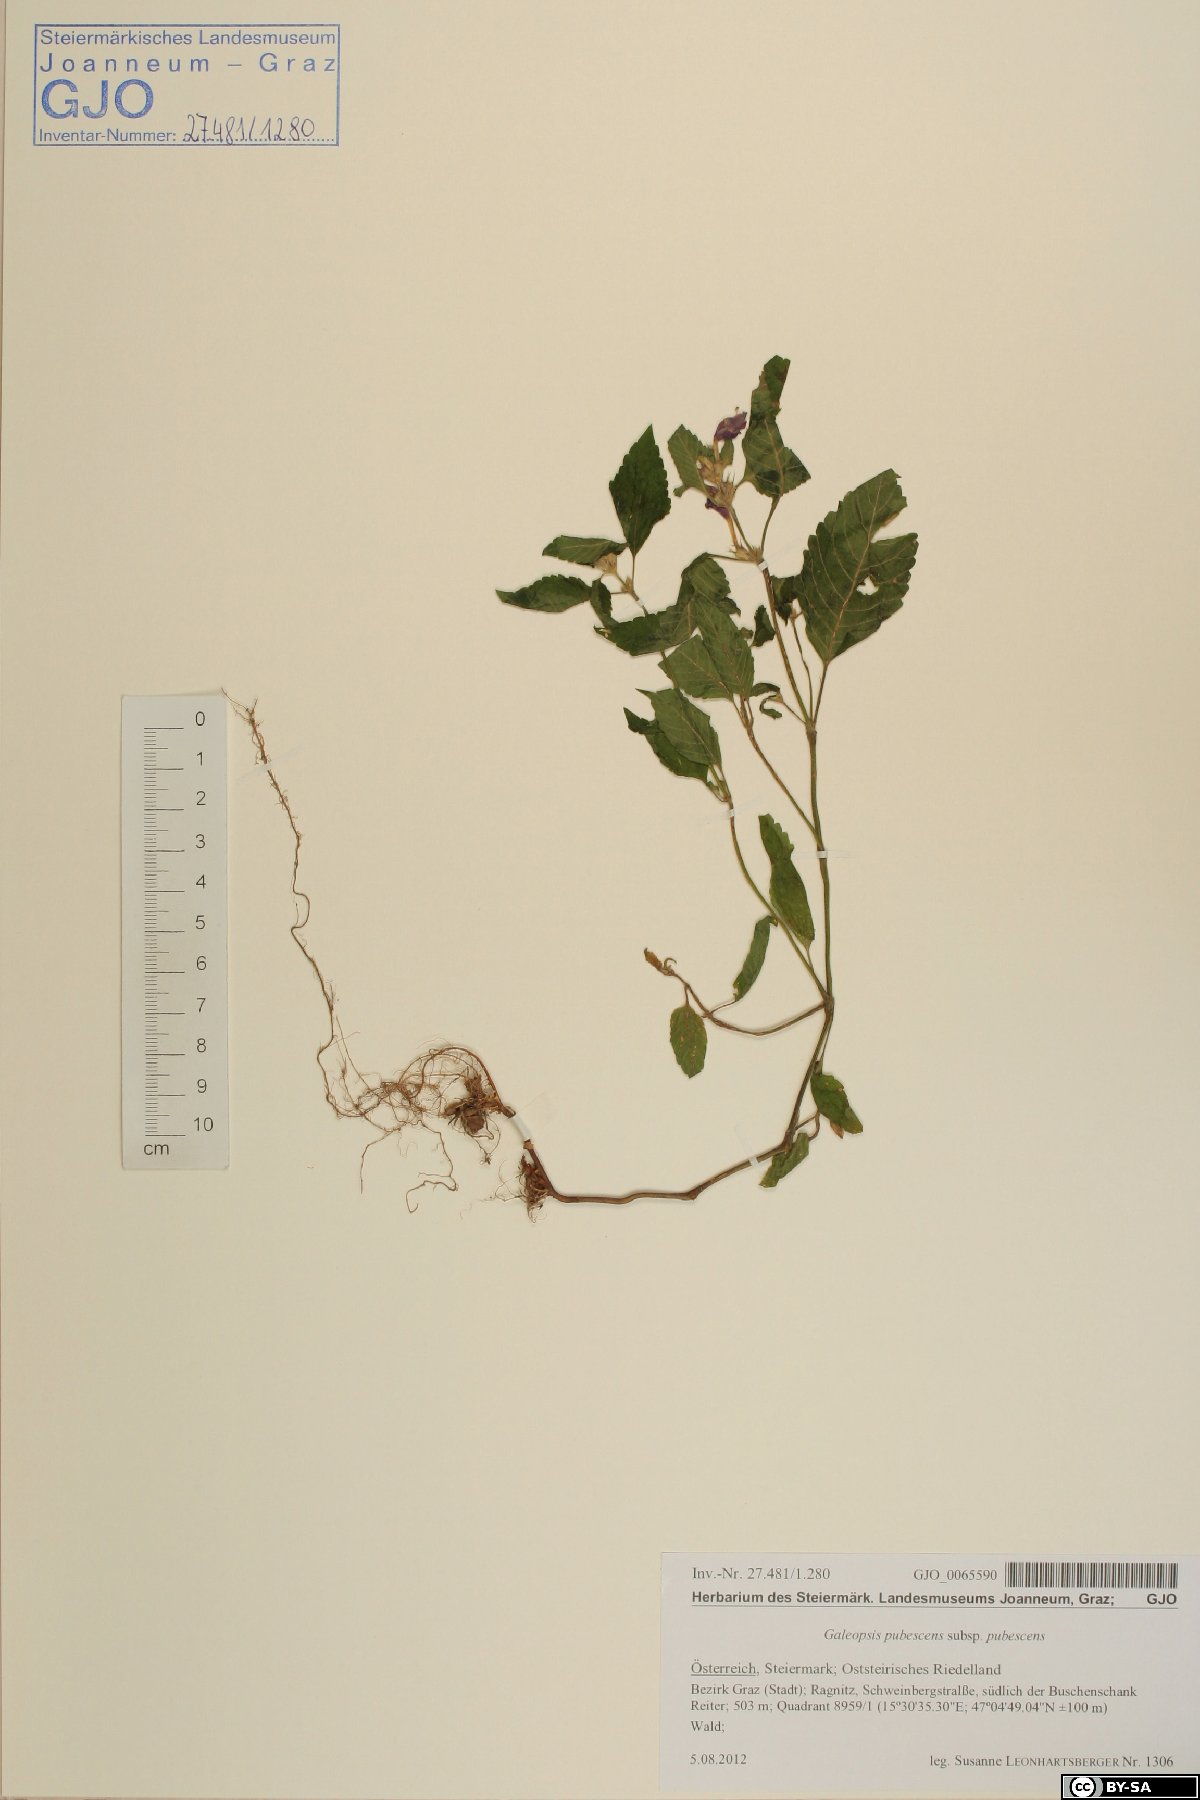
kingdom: Plantae
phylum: Tracheophyta
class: Magnoliopsida
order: Lamiales
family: Lamiaceae
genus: Galeopsis
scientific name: Galeopsis pubescens
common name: Downy hemp-nettle
